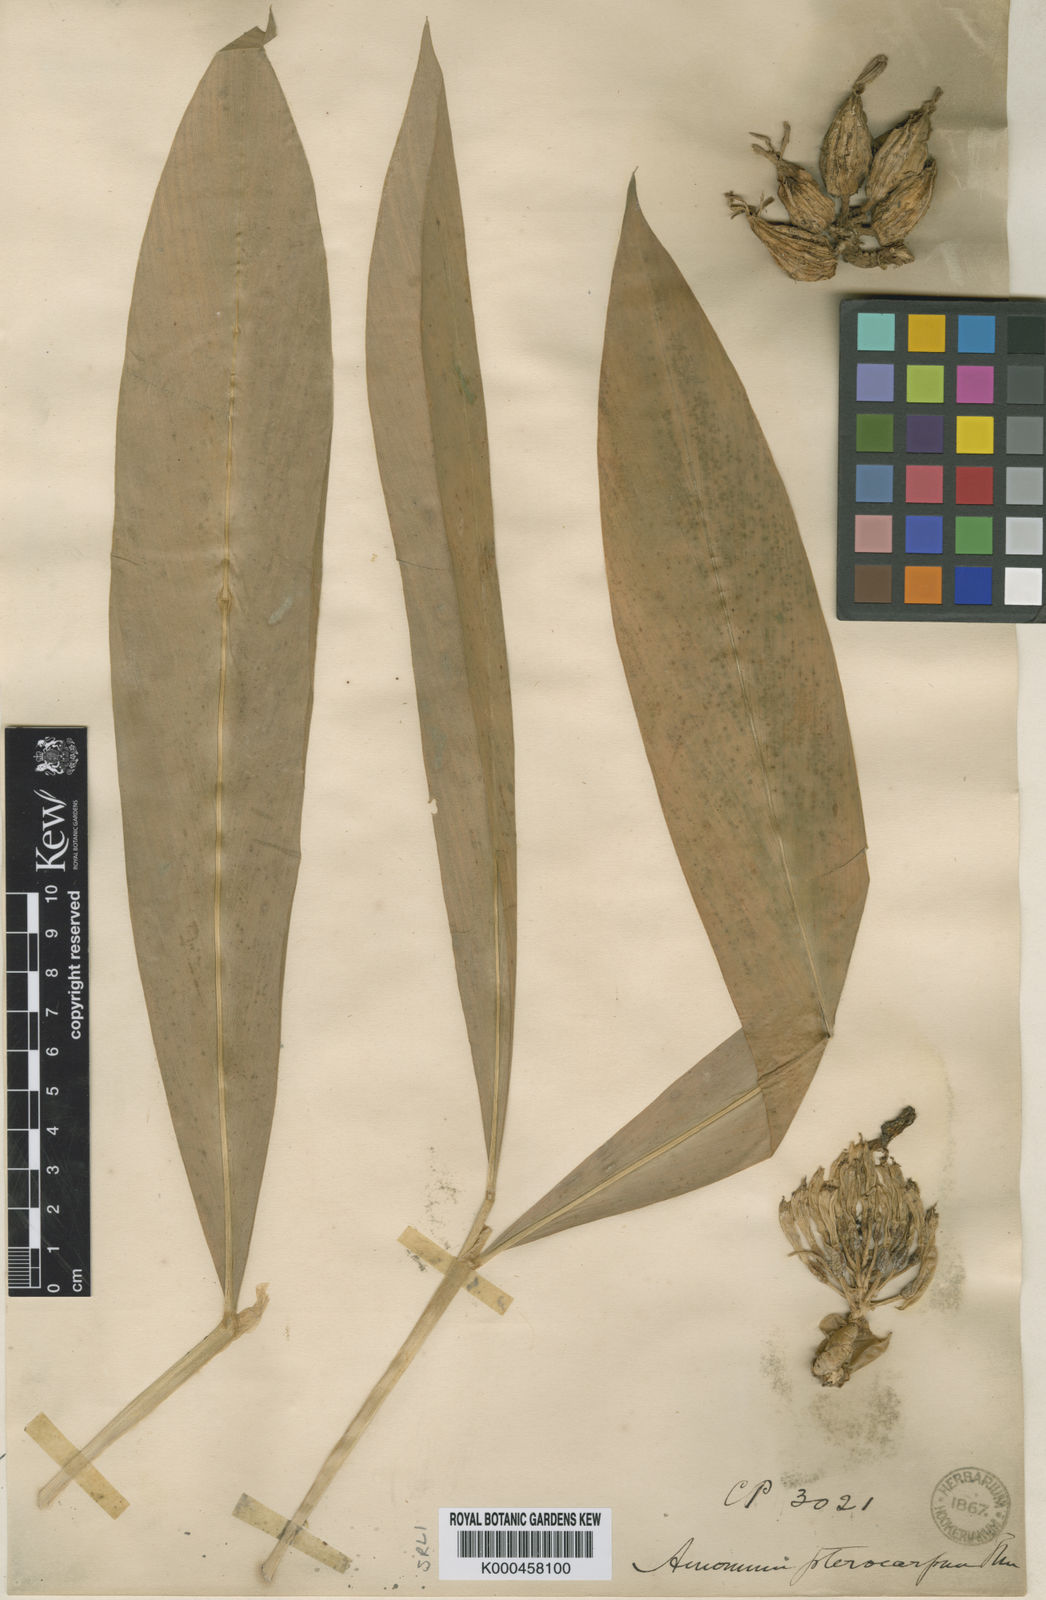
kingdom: Plantae
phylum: Tracheophyta
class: Liliopsida
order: Zingiberales
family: Zingiberaceae
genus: Amomum
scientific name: Amomum
